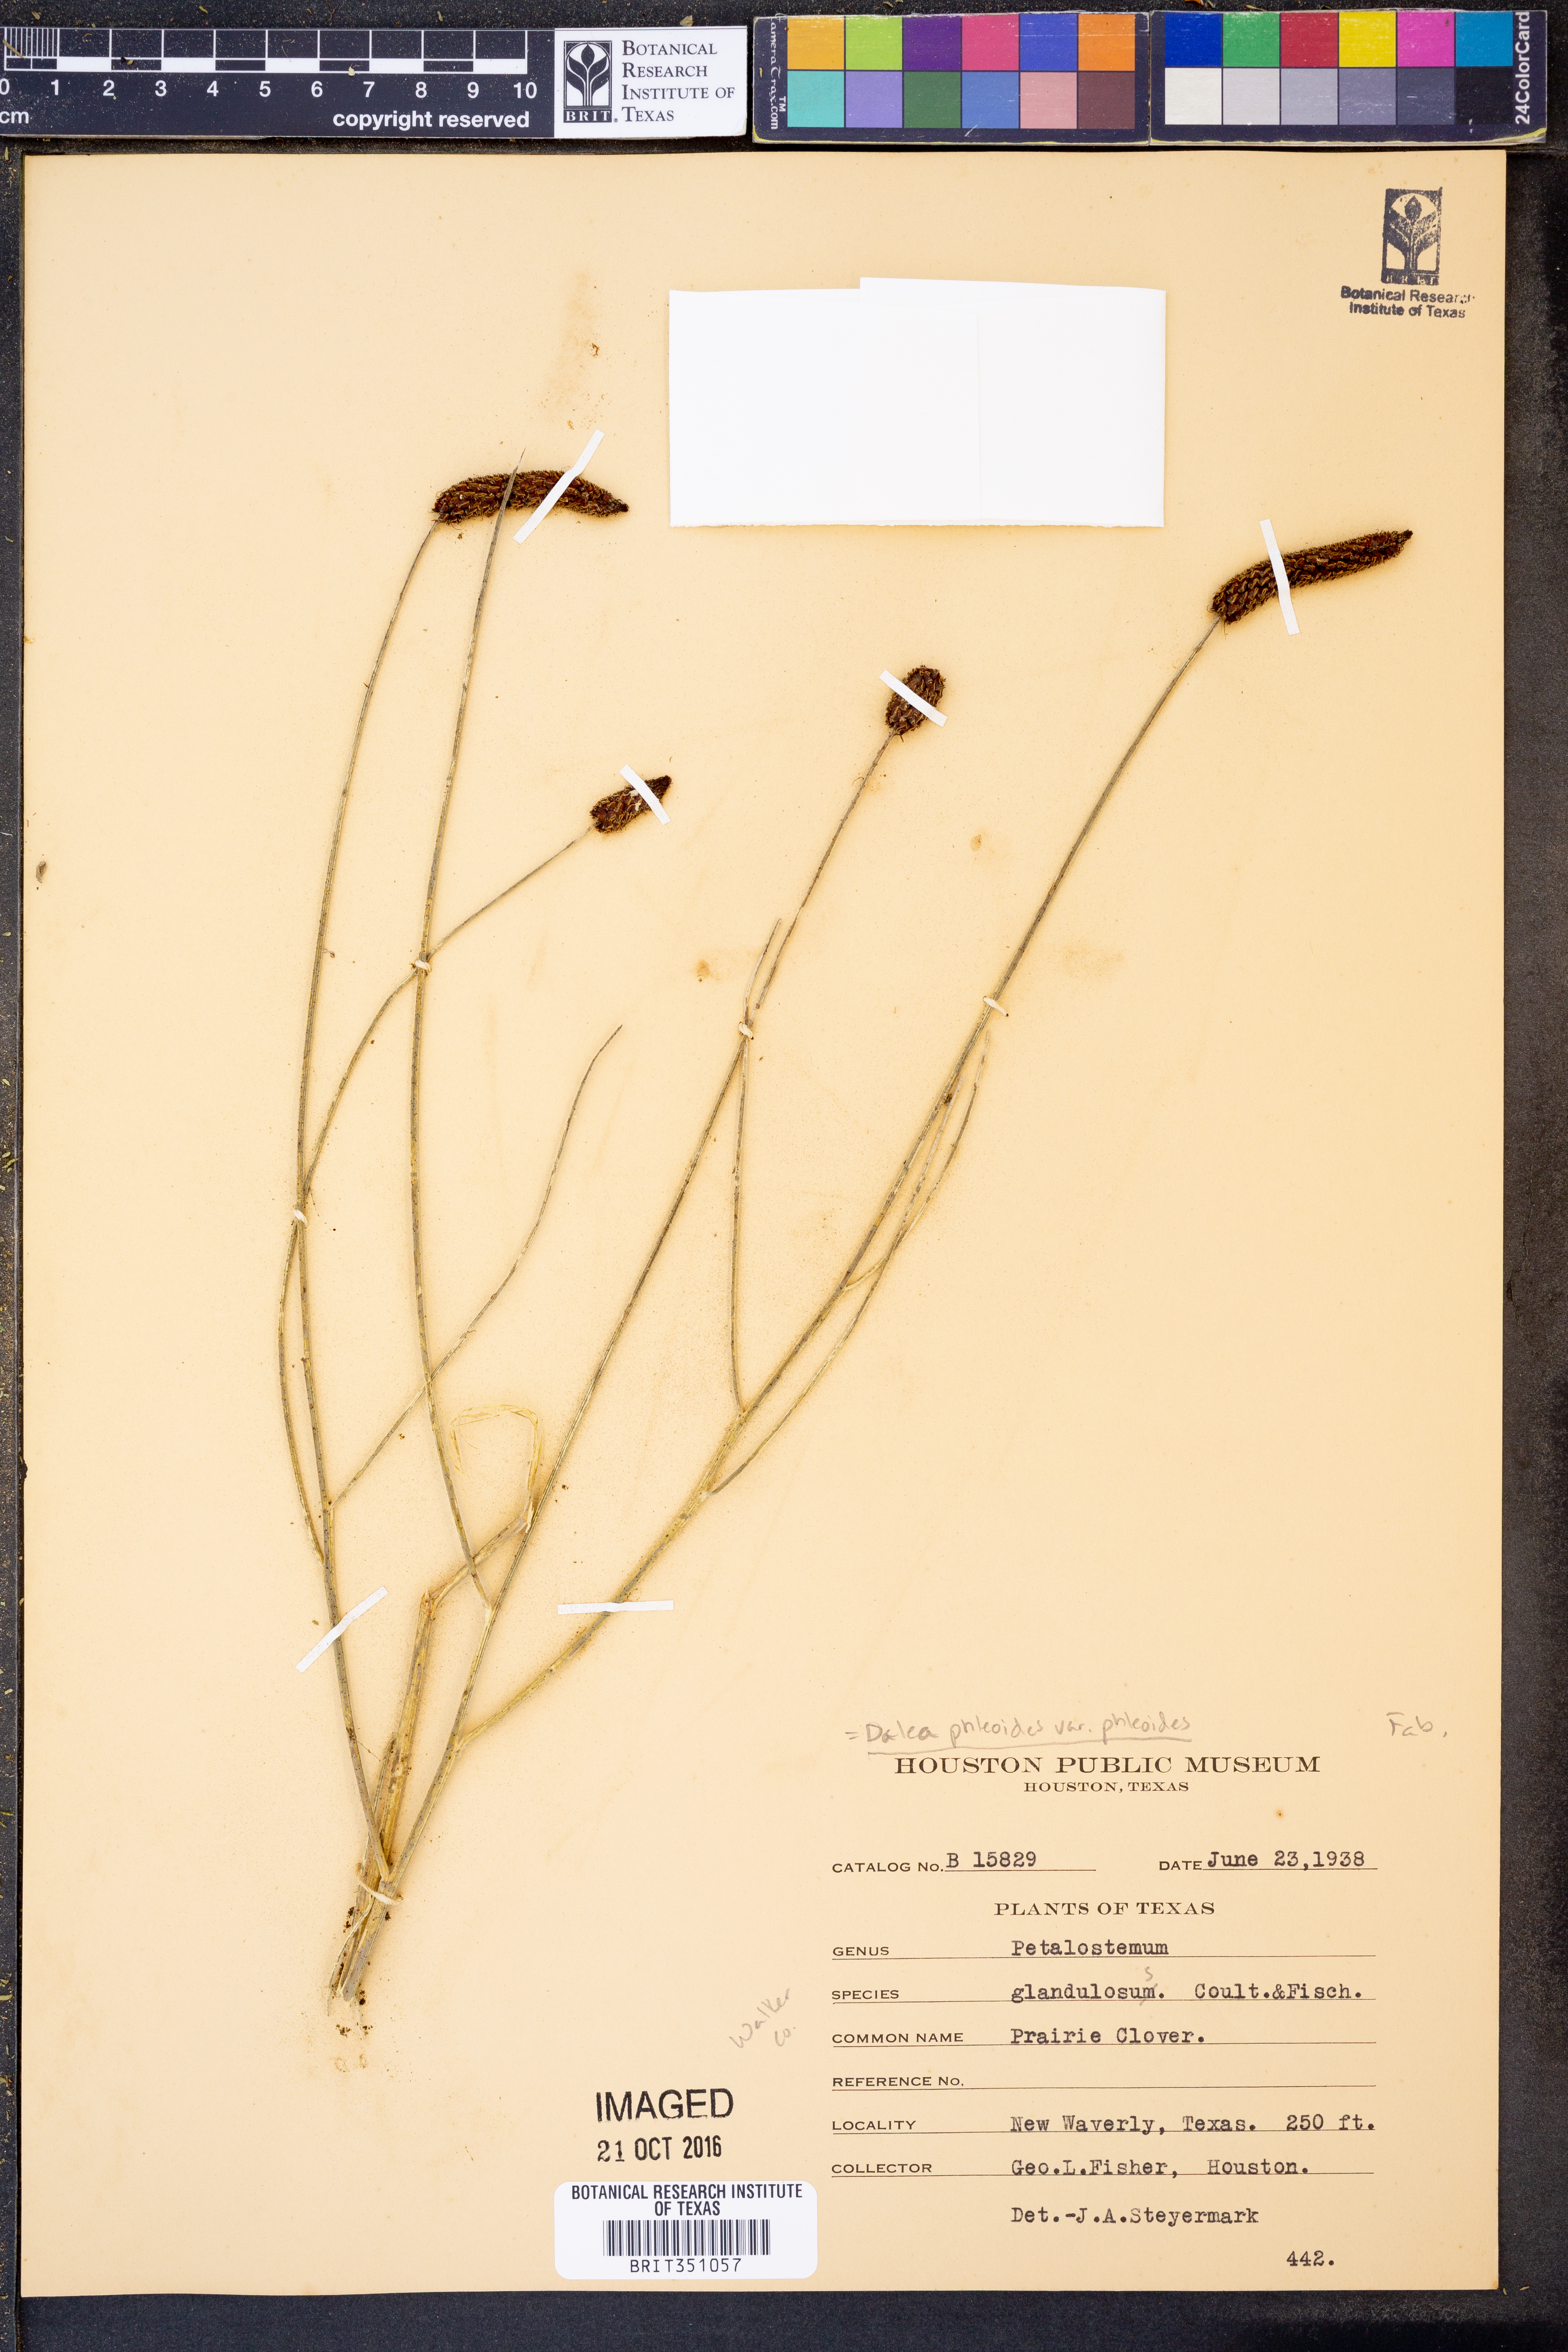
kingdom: Plantae
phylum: Tracheophyta
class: Magnoliopsida
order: Fabales
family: Fabaceae
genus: Dalea
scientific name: Dalea phleoides
